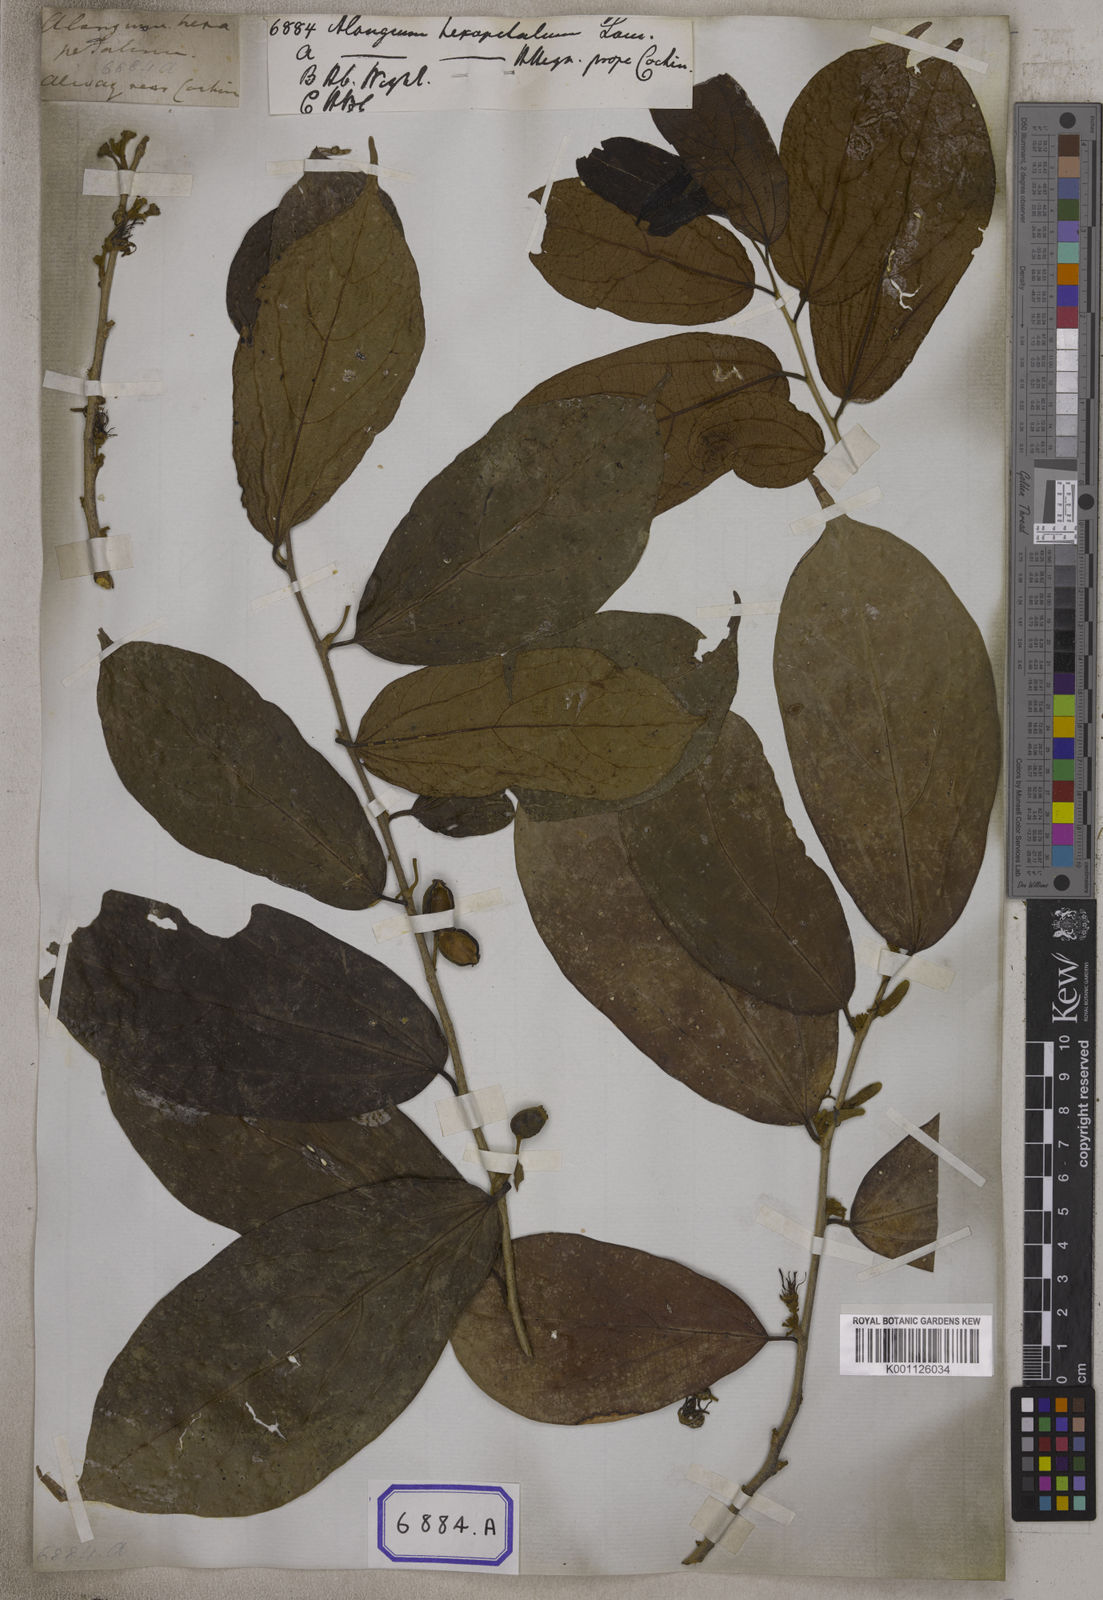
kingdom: Plantae
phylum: Tracheophyta
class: Magnoliopsida
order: Cornales
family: Cornaceae
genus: Alangium
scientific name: Alangium hexapetalum
